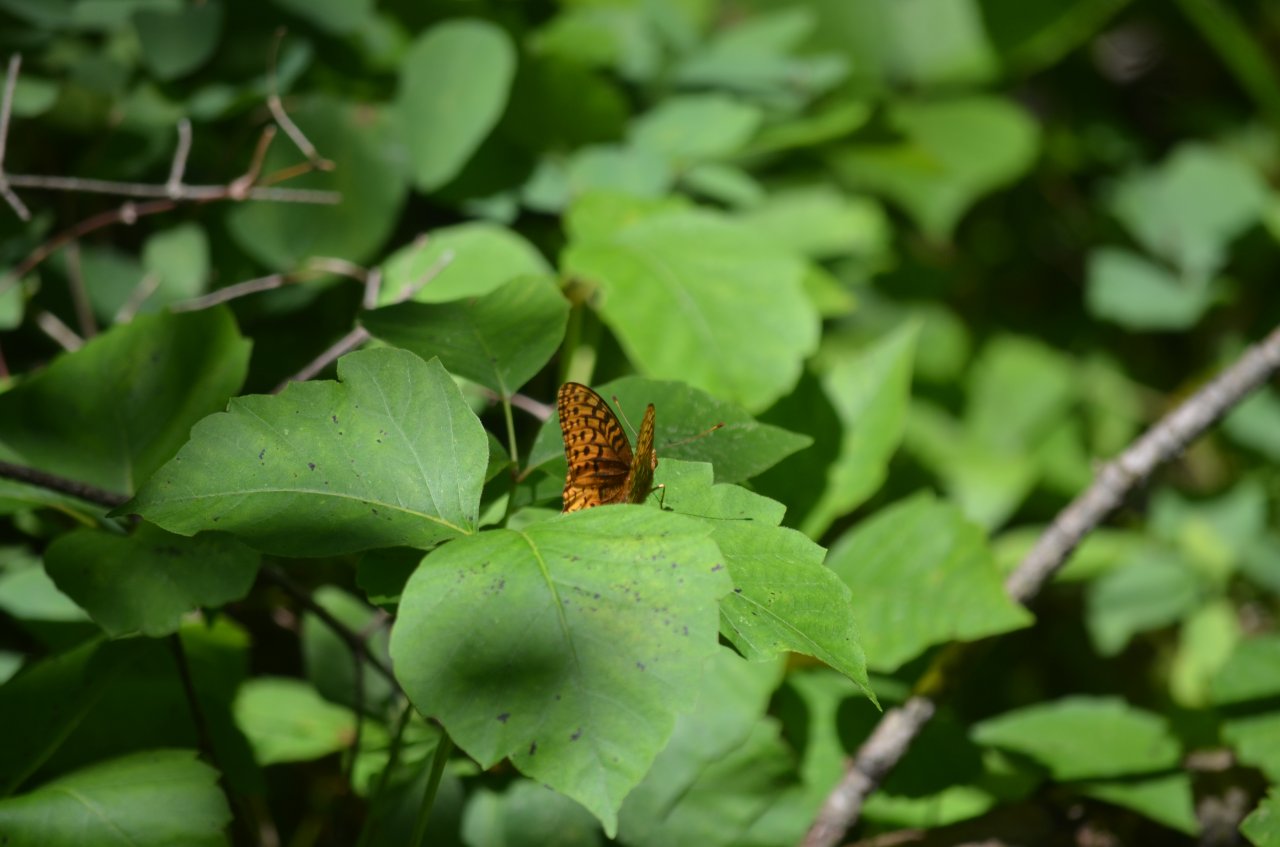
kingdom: Animalia
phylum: Arthropoda
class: Insecta
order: Lepidoptera
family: Nymphalidae
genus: Speyeria
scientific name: Speyeria cybele
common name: Great Spangled Fritillary
